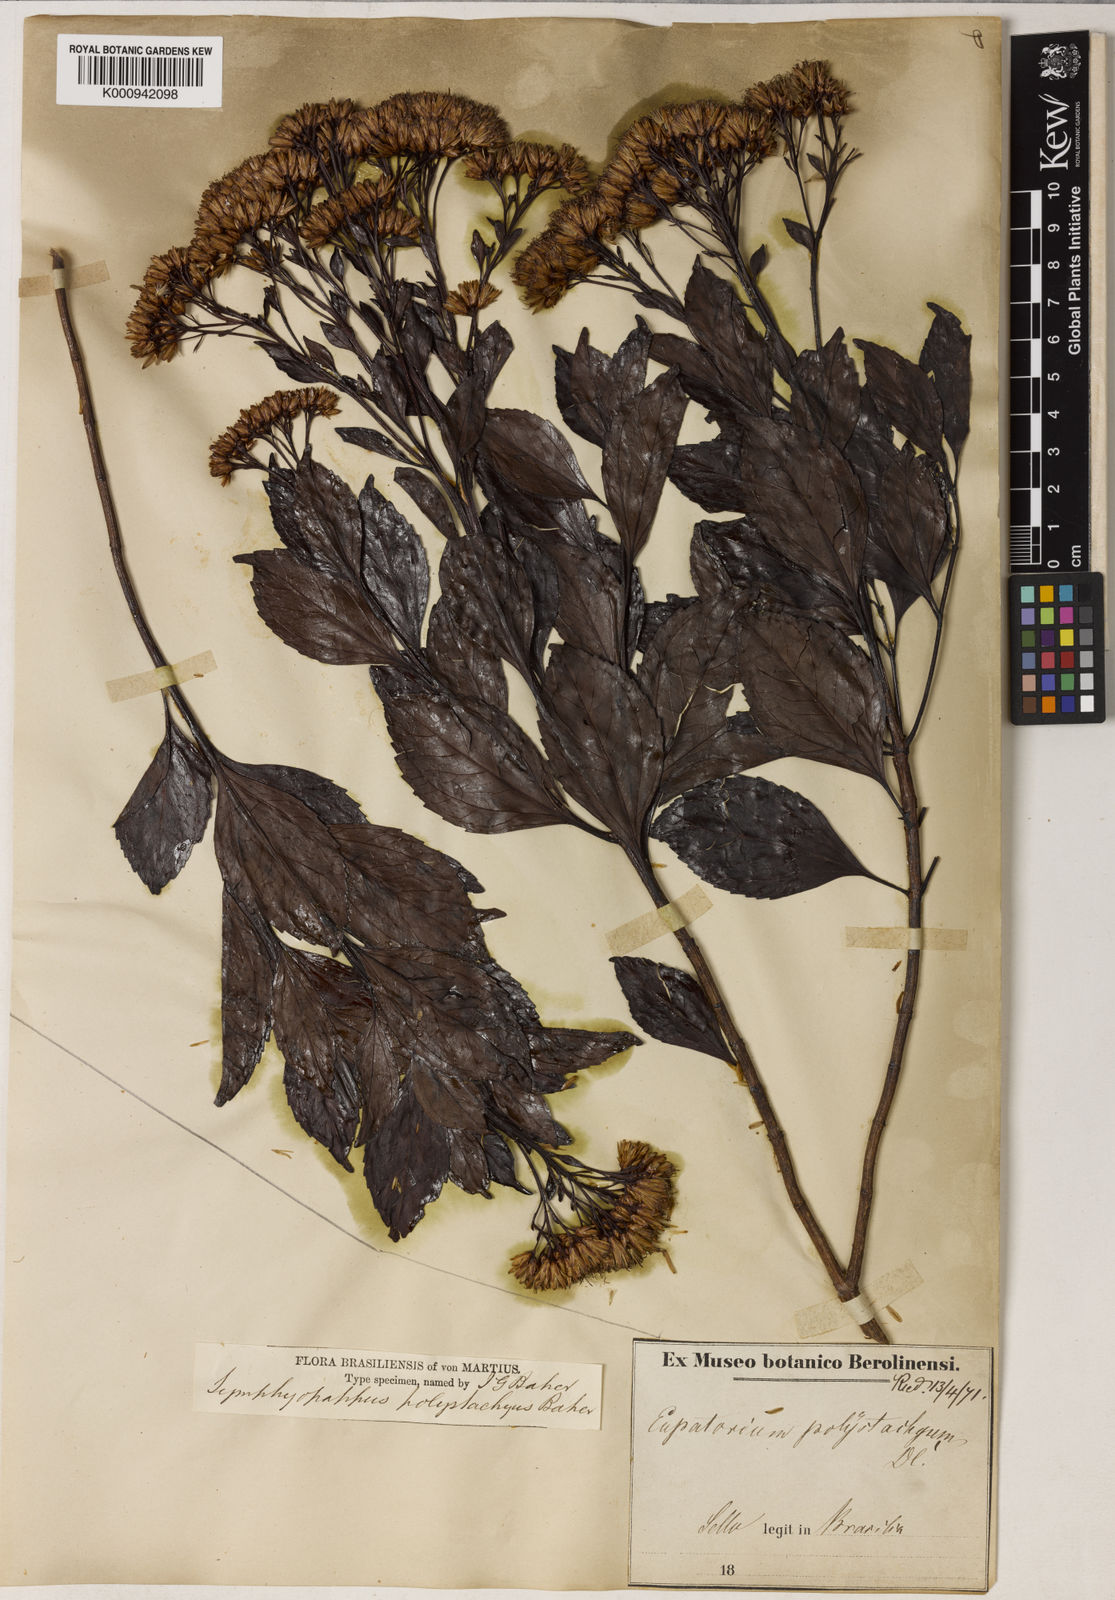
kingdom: Plantae
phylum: Tracheophyta
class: Magnoliopsida
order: Asterales
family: Asteraceae
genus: Symphyopappus
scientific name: Symphyopappus compressus
